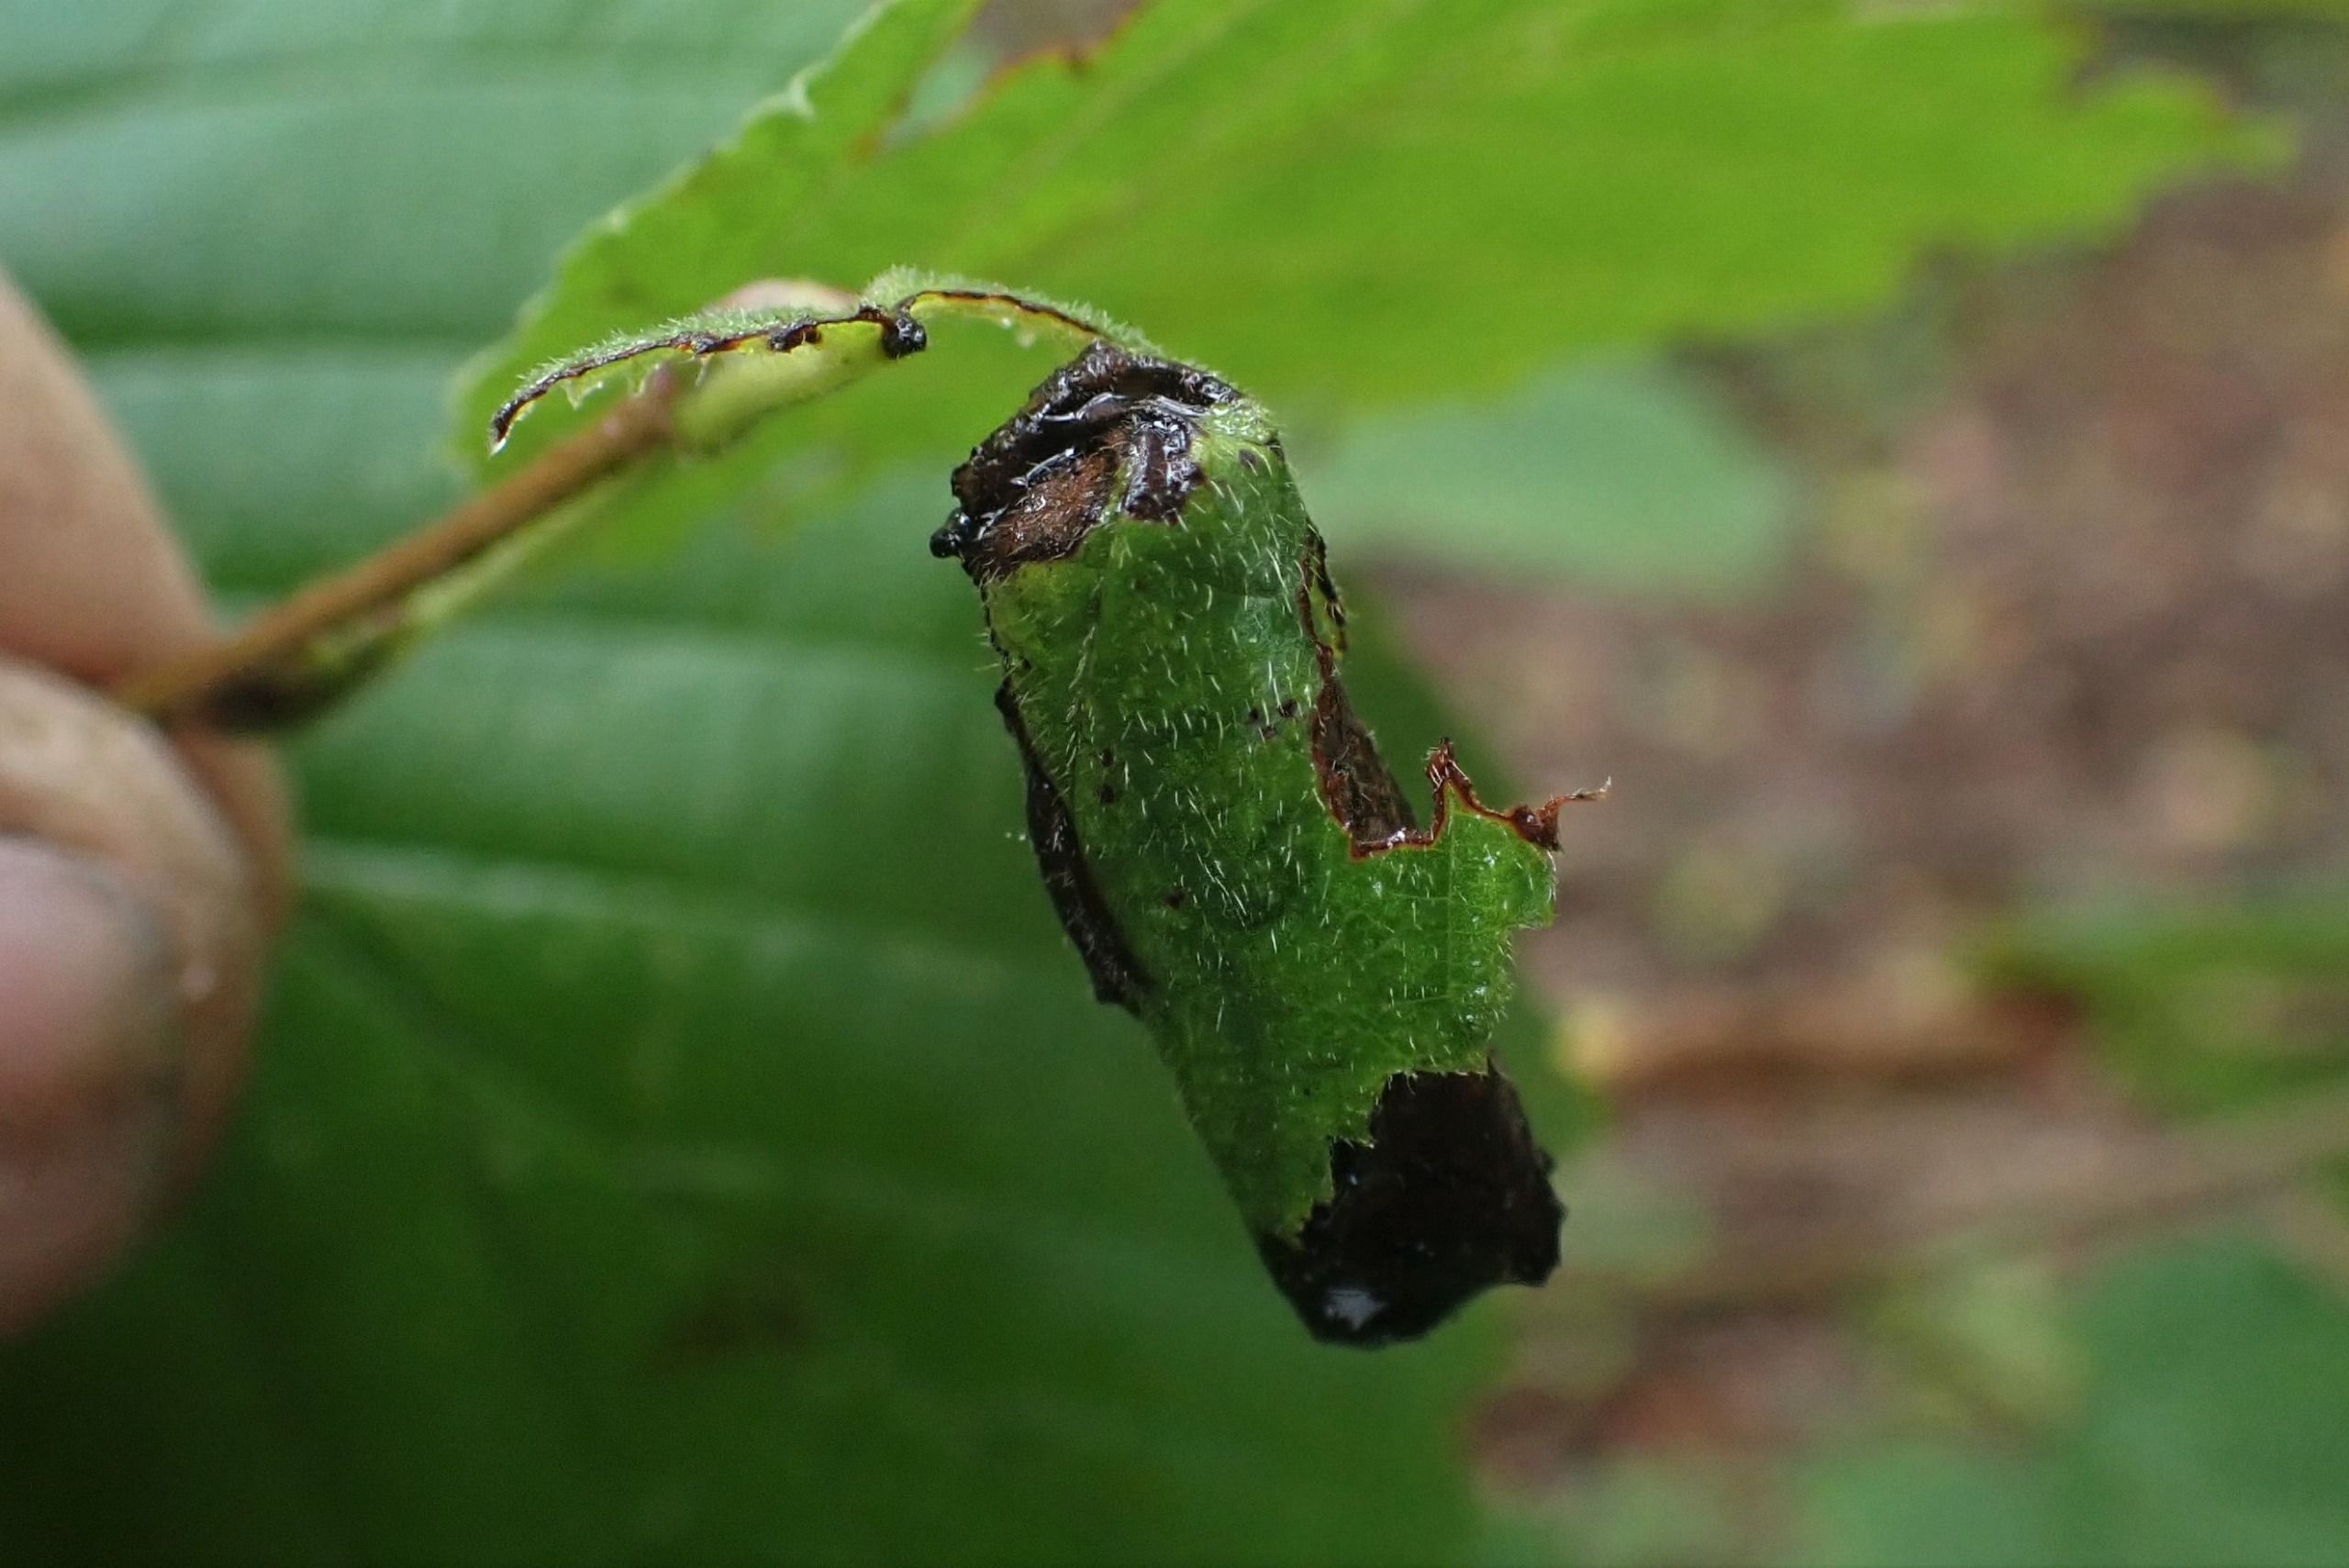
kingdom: Animalia
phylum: Arthropoda
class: Insecta
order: Coleoptera
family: Attelabidae
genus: Apoderus
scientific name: Apoderus coryli
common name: Hasselbladruller
